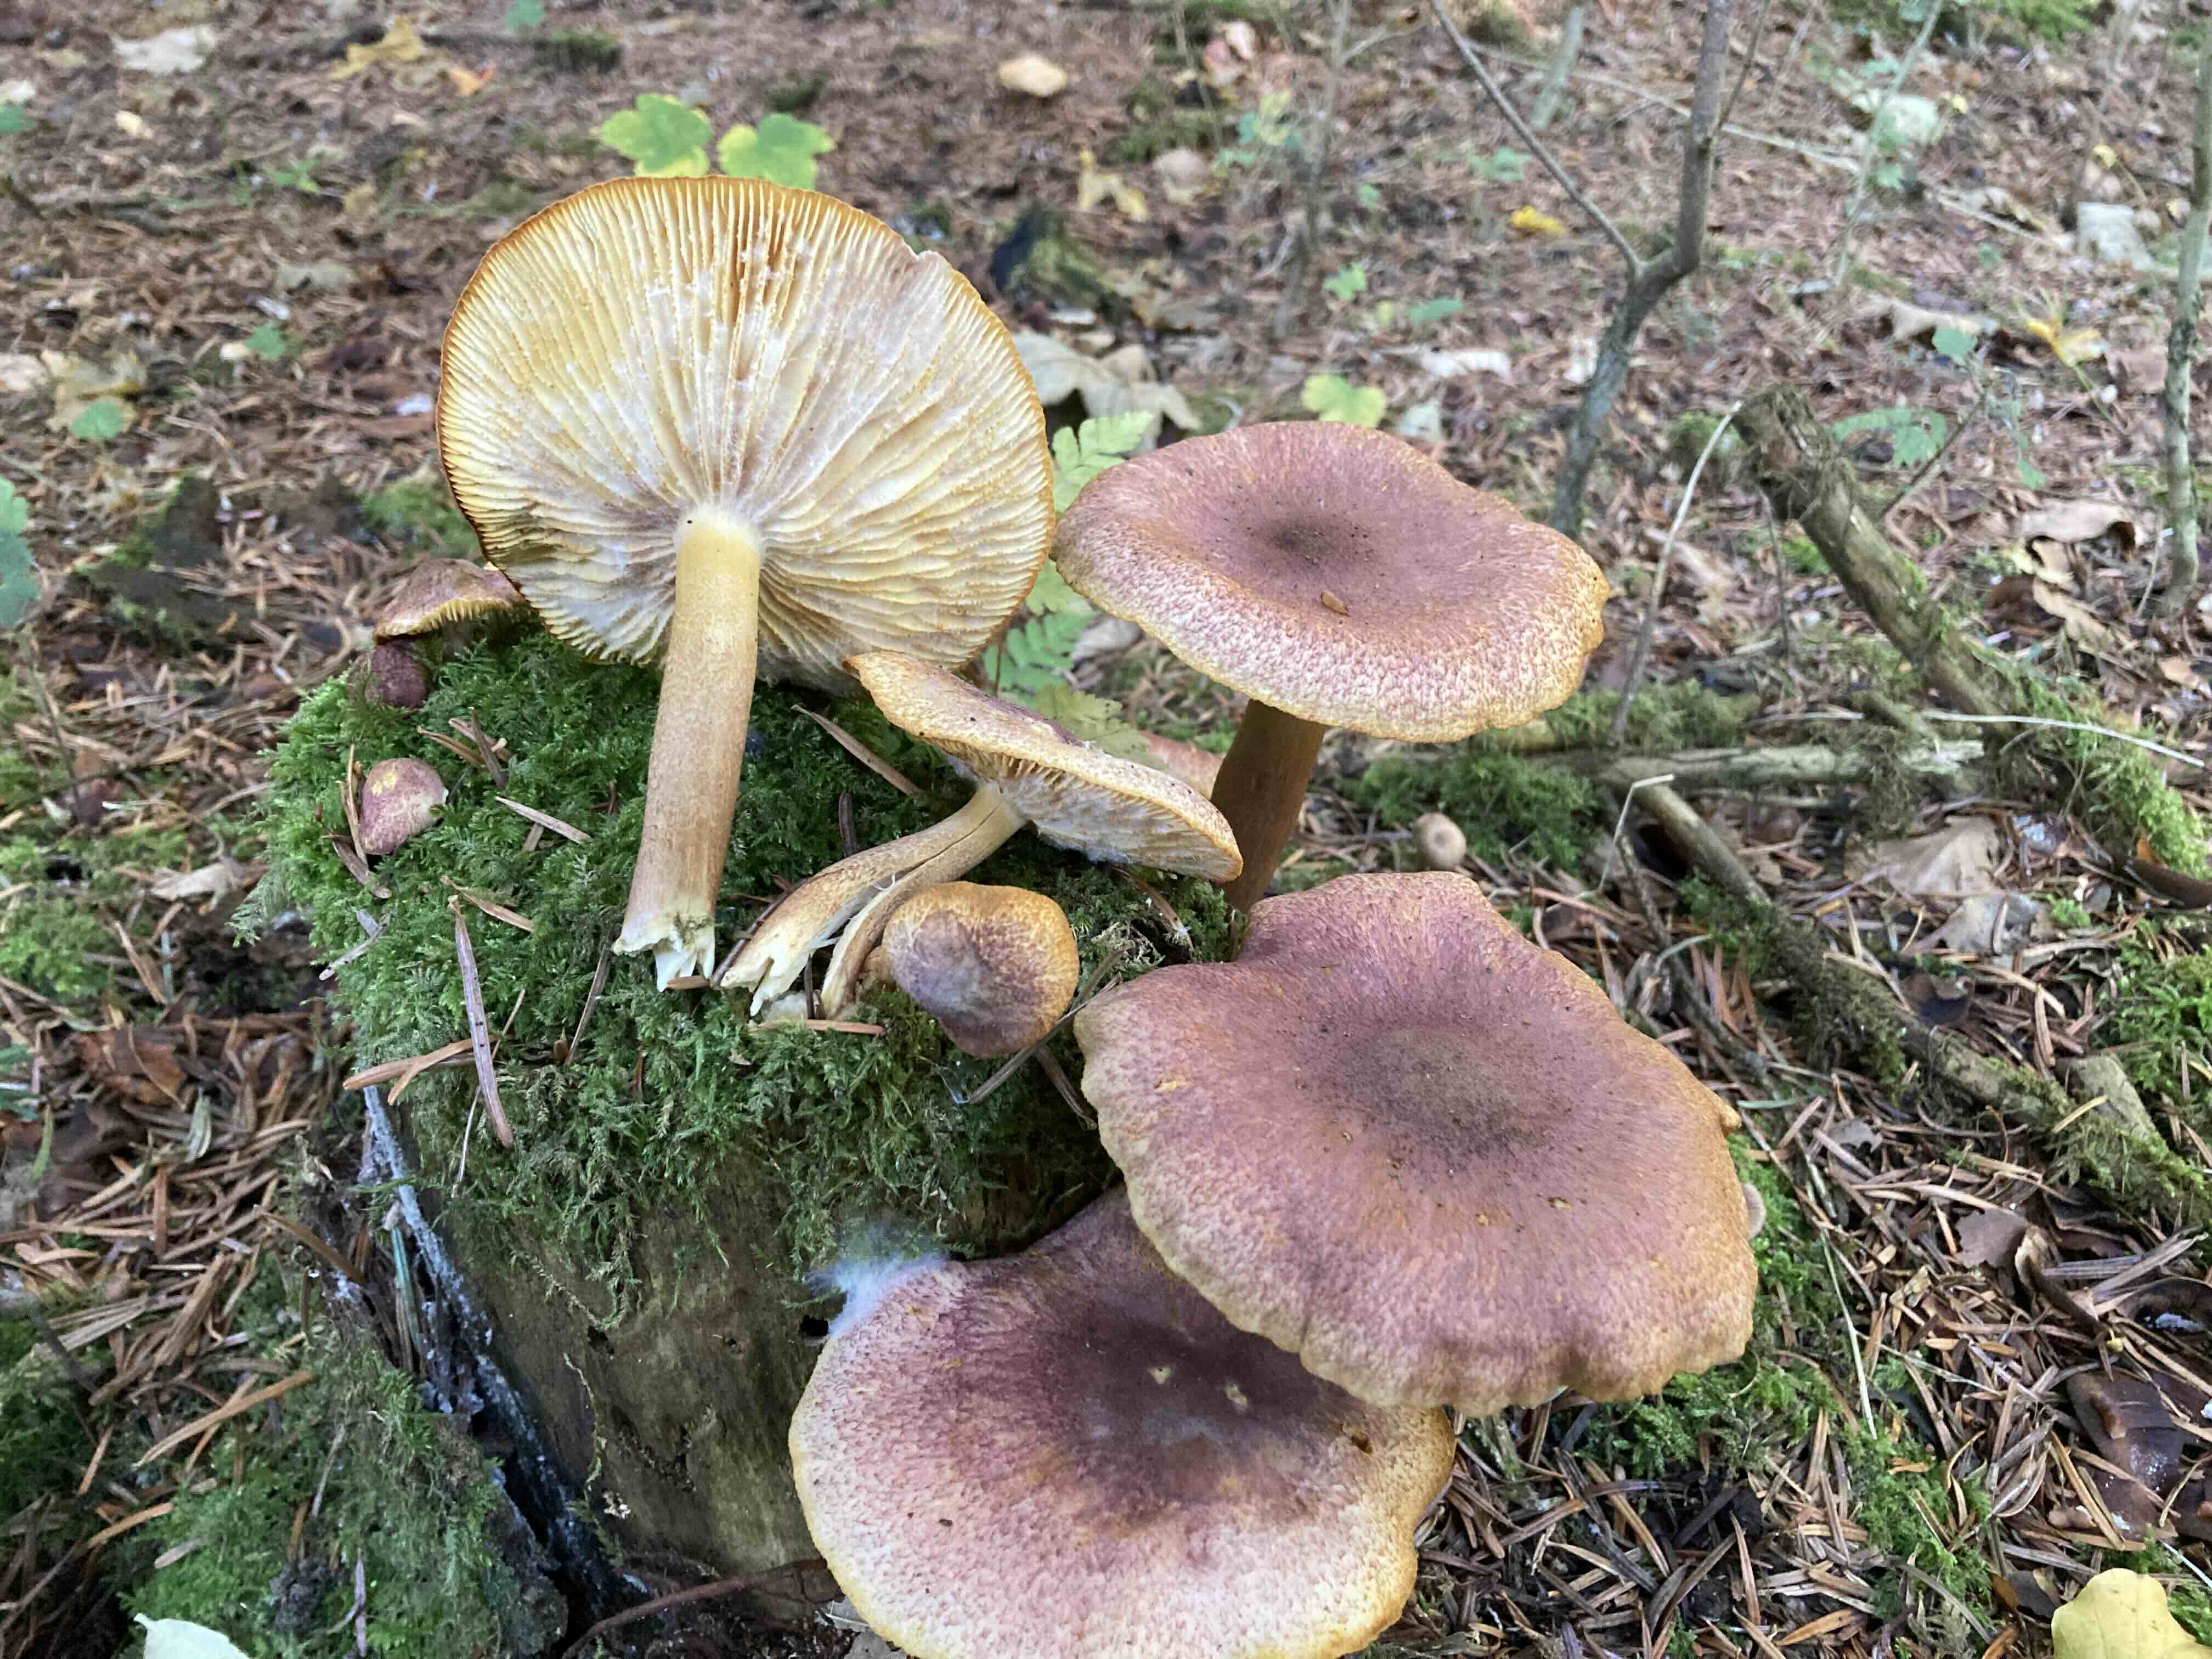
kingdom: Fungi
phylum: Basidiomycota
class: Agaricomycetes
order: Agaricales
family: Tricholomataceae
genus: Tricholomopsis
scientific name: Tricholomopsis rutilans
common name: purpur-væbnerhat
